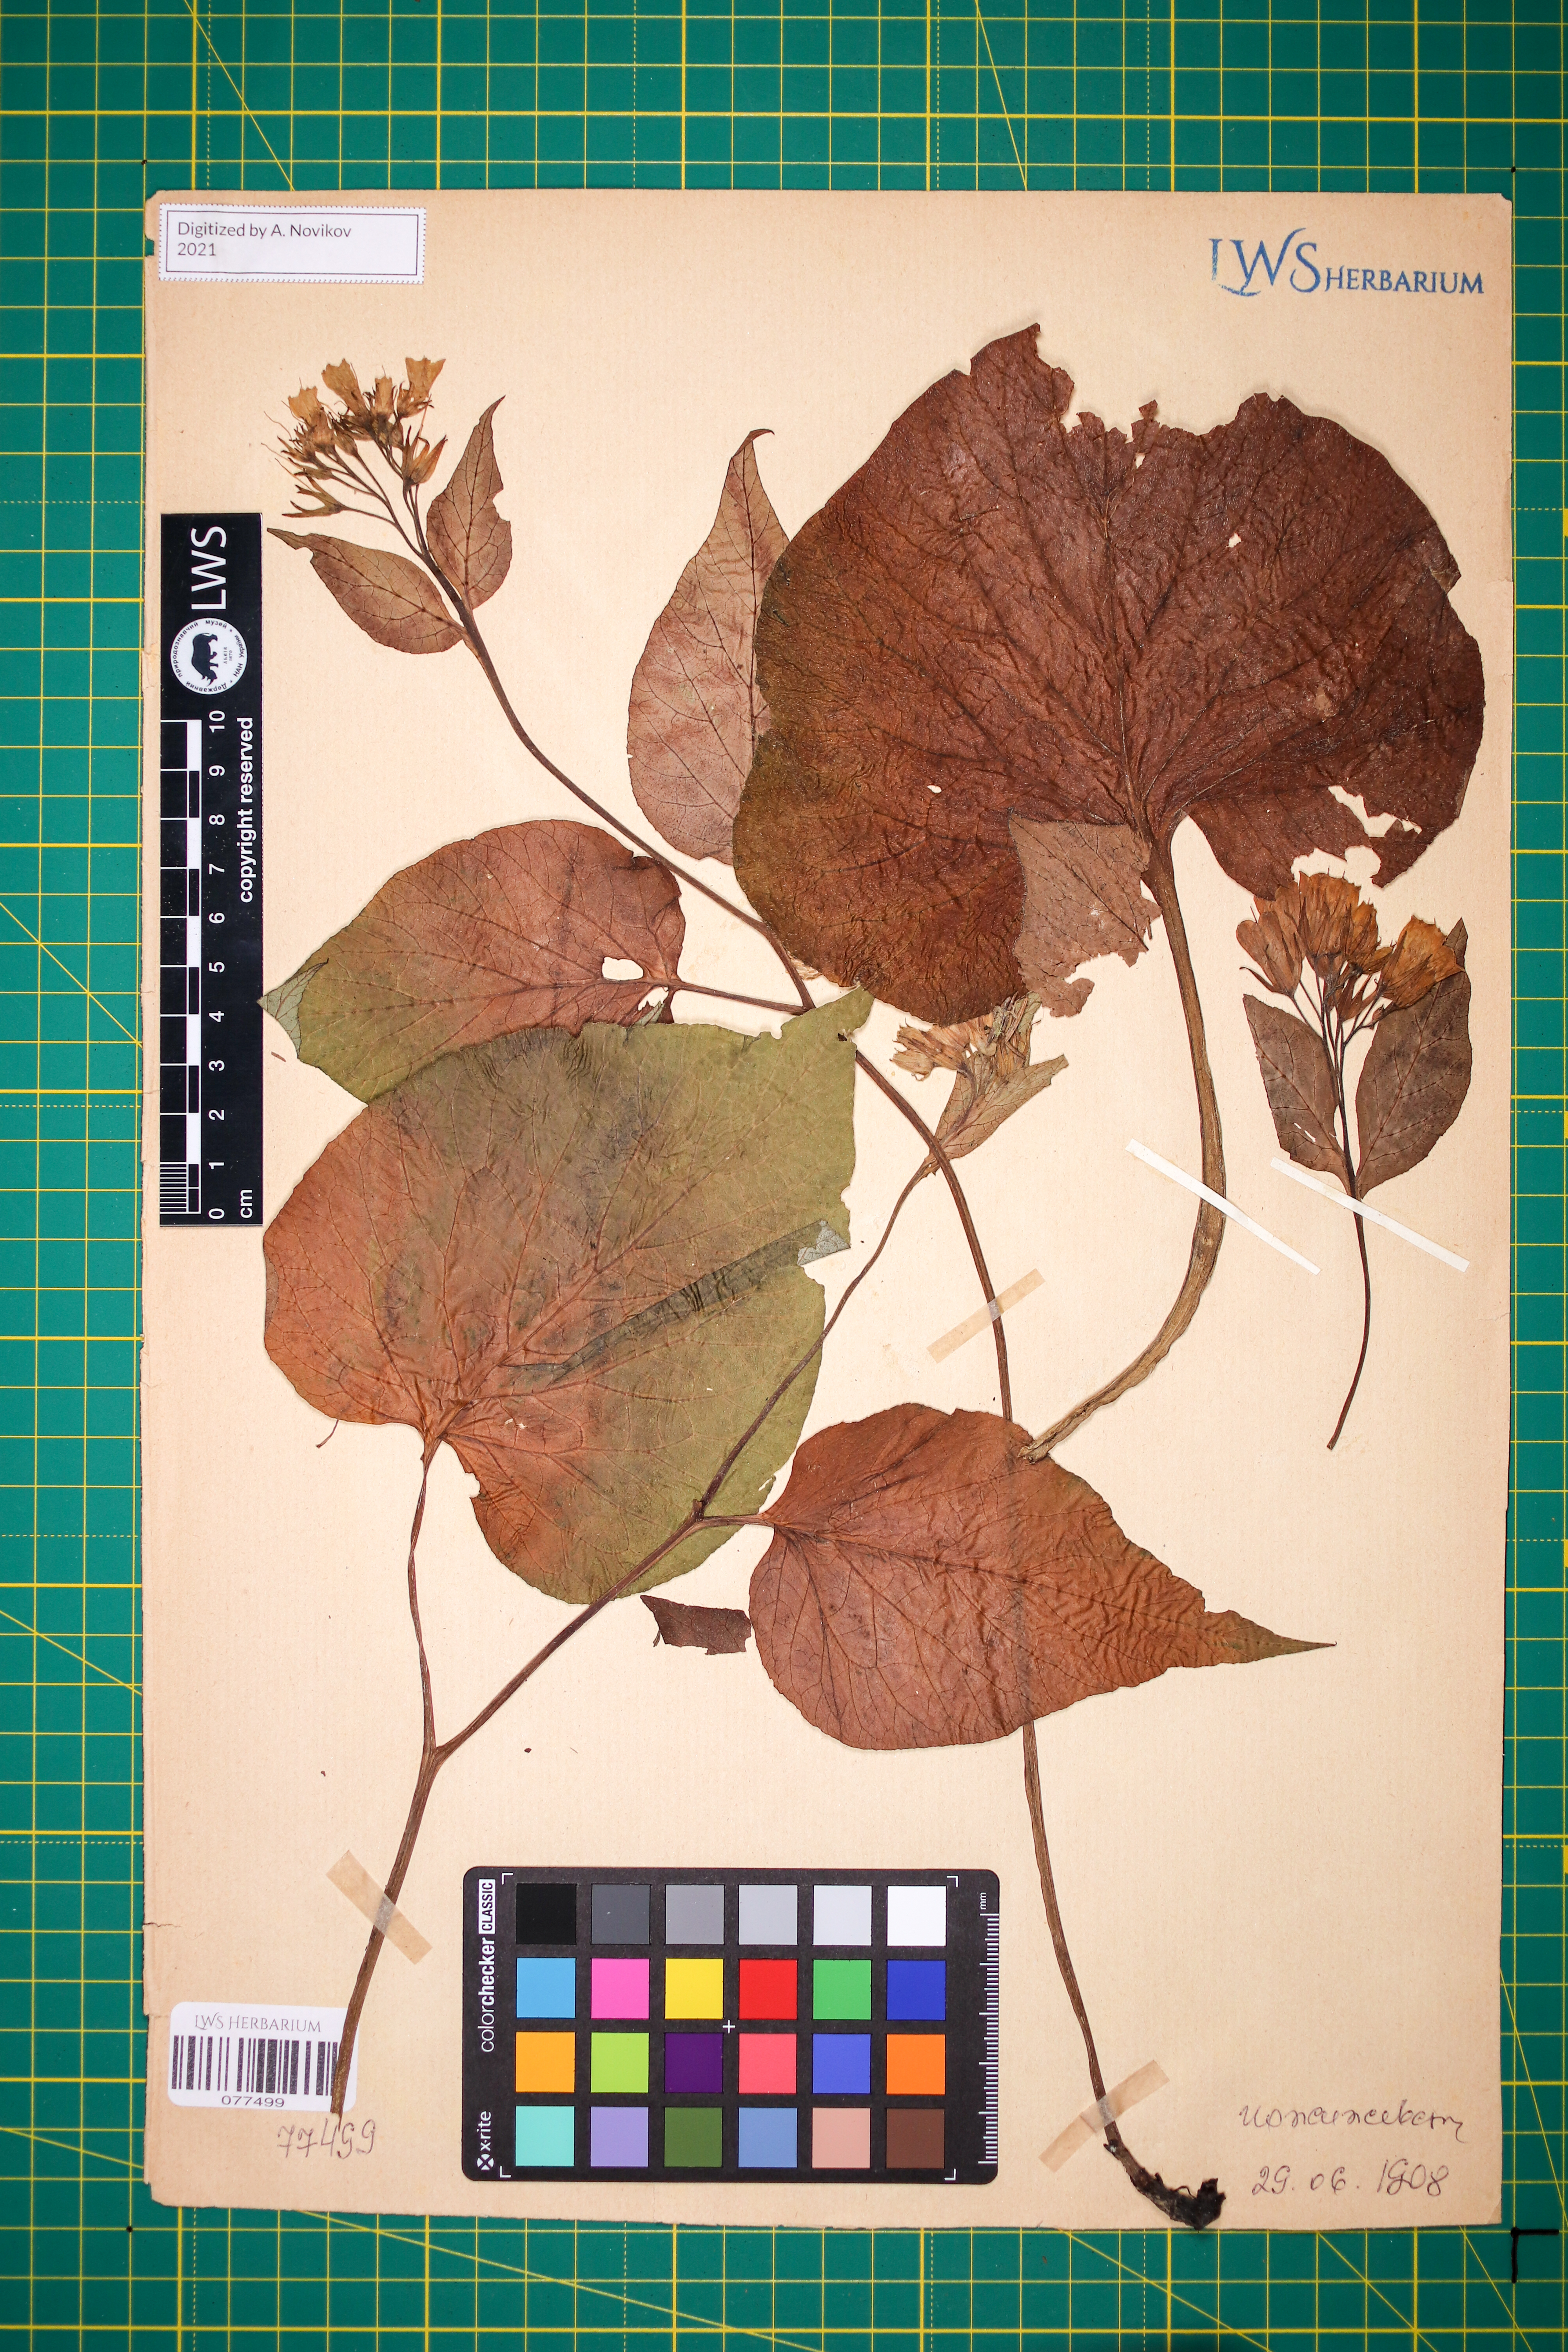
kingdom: Plantae
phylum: Tracheophyta
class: Magnoliopsida
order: Boraginales
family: Boraginaceae
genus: Symphytum
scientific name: Symphytum cordatum
